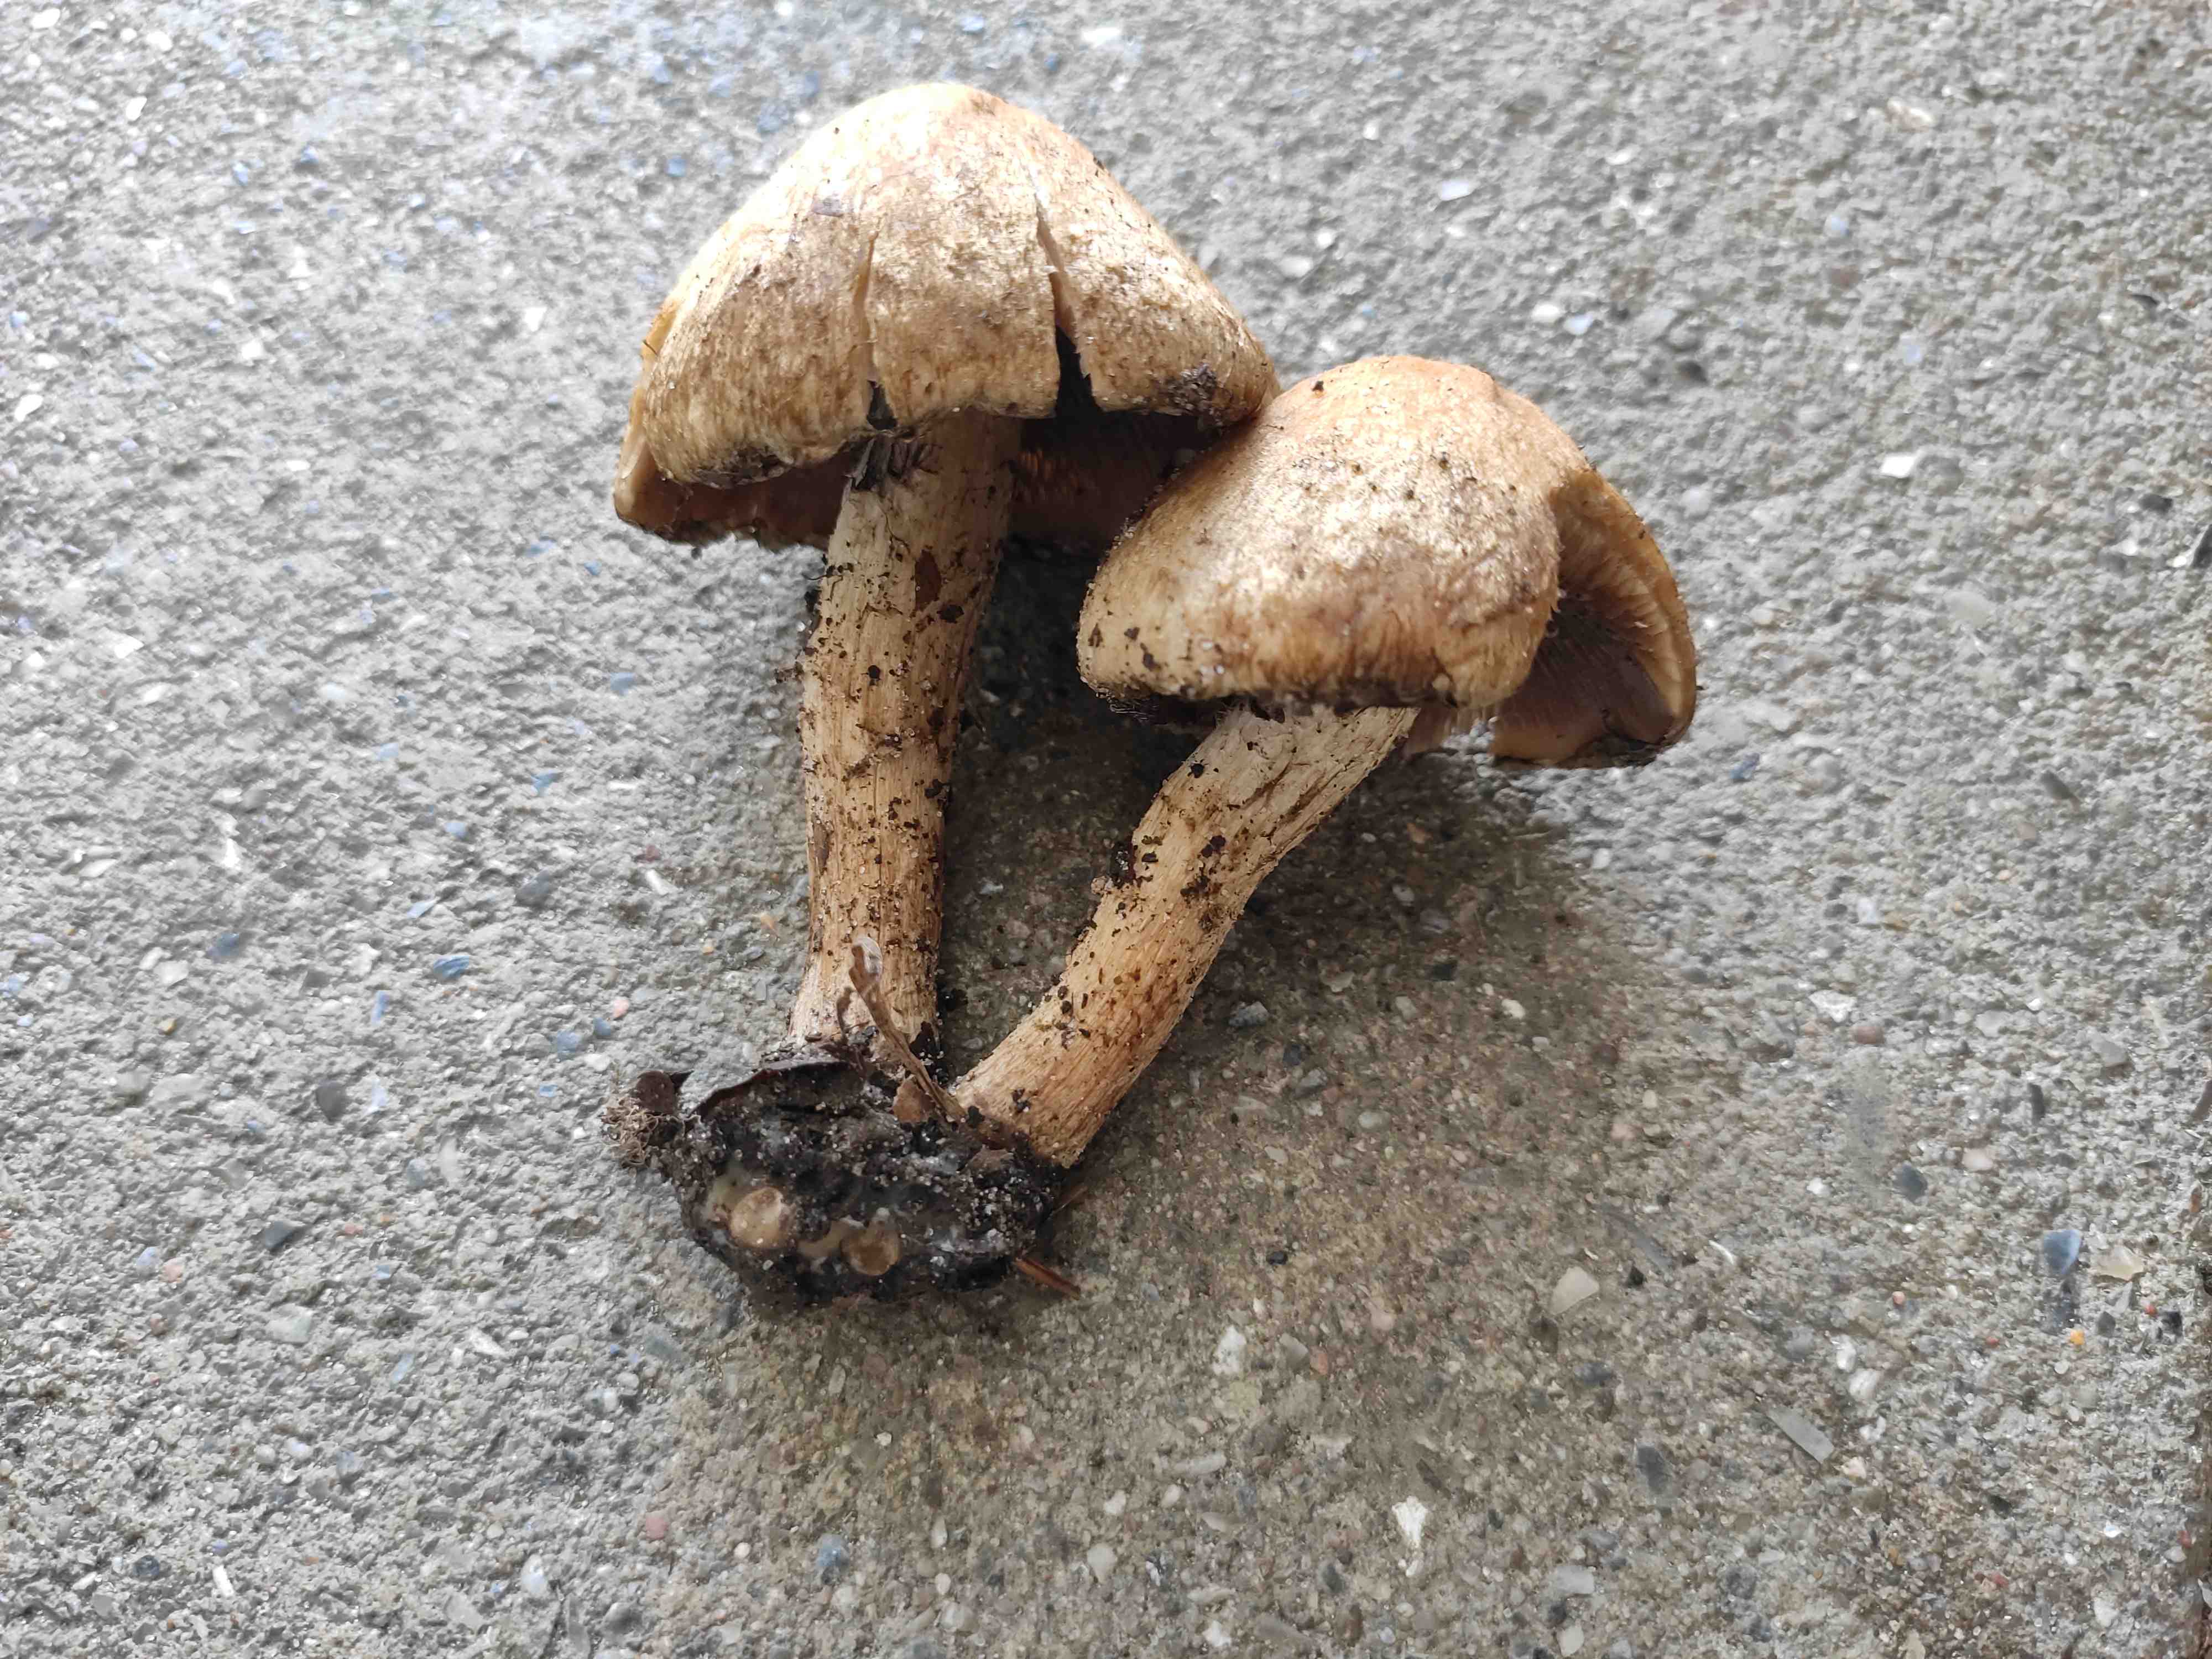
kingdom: Fungi
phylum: Basidiomycota
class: Agaricomycetes
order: Agaricales
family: Psathyrellaceae
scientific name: Psathyrellaceae
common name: mørkhatfamilien
